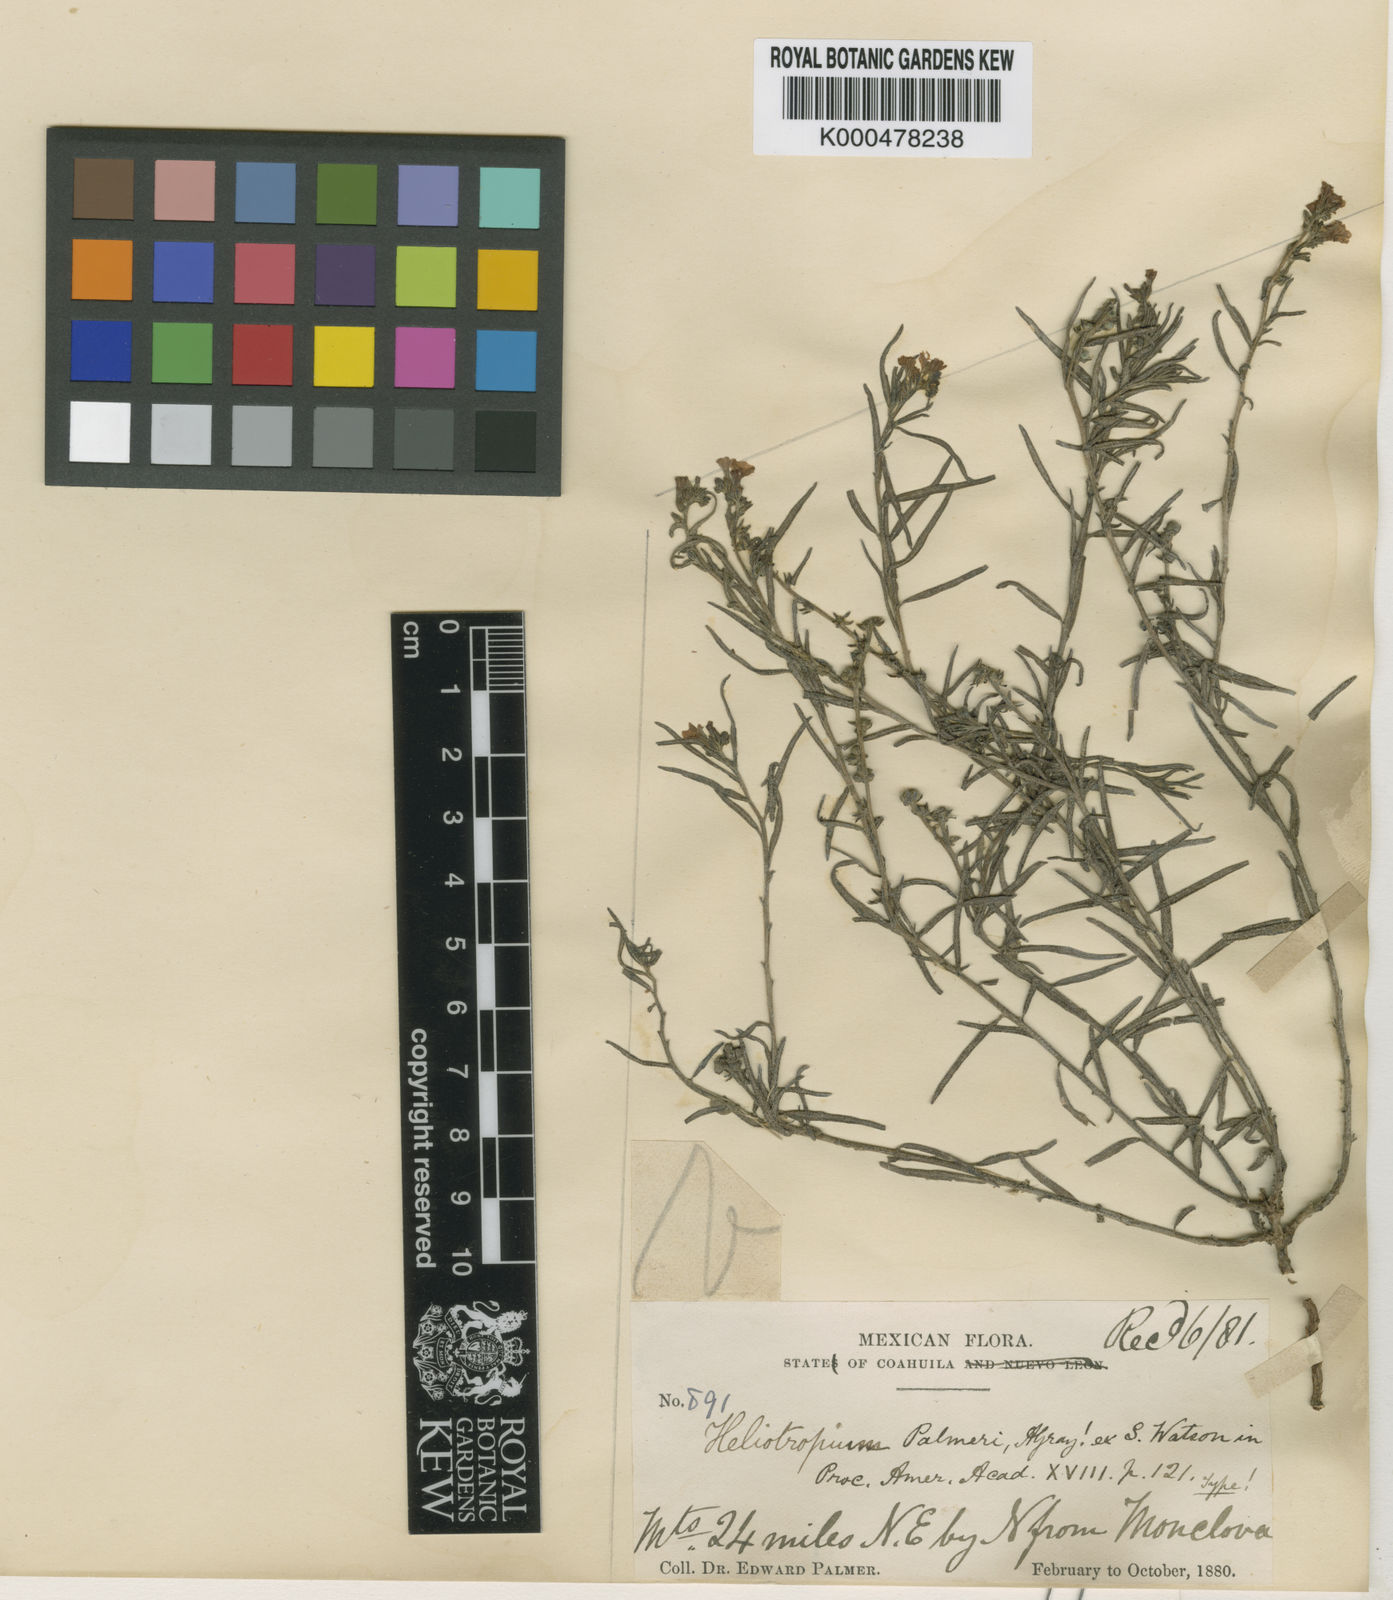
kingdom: Plantae
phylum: Tracheophyta
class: Magnoliopsida
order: Boraginales
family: Heliotropiaceae
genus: Euploca
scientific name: Euploca greggii
